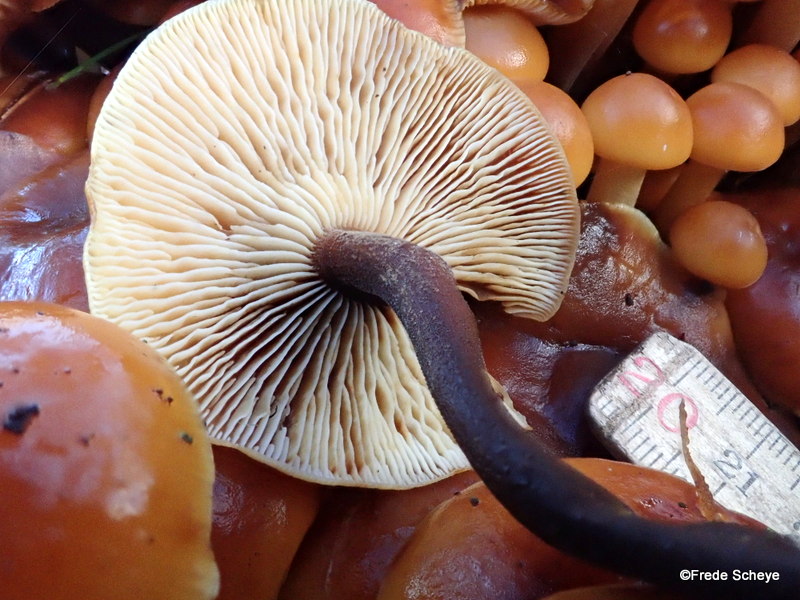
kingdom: Fungi
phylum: Basidiomycota
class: Agaricomycetes
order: Agaricales
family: Physalacriaceae
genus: Flammulina
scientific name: Flammulina velutipes
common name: gul fløjlsfod
